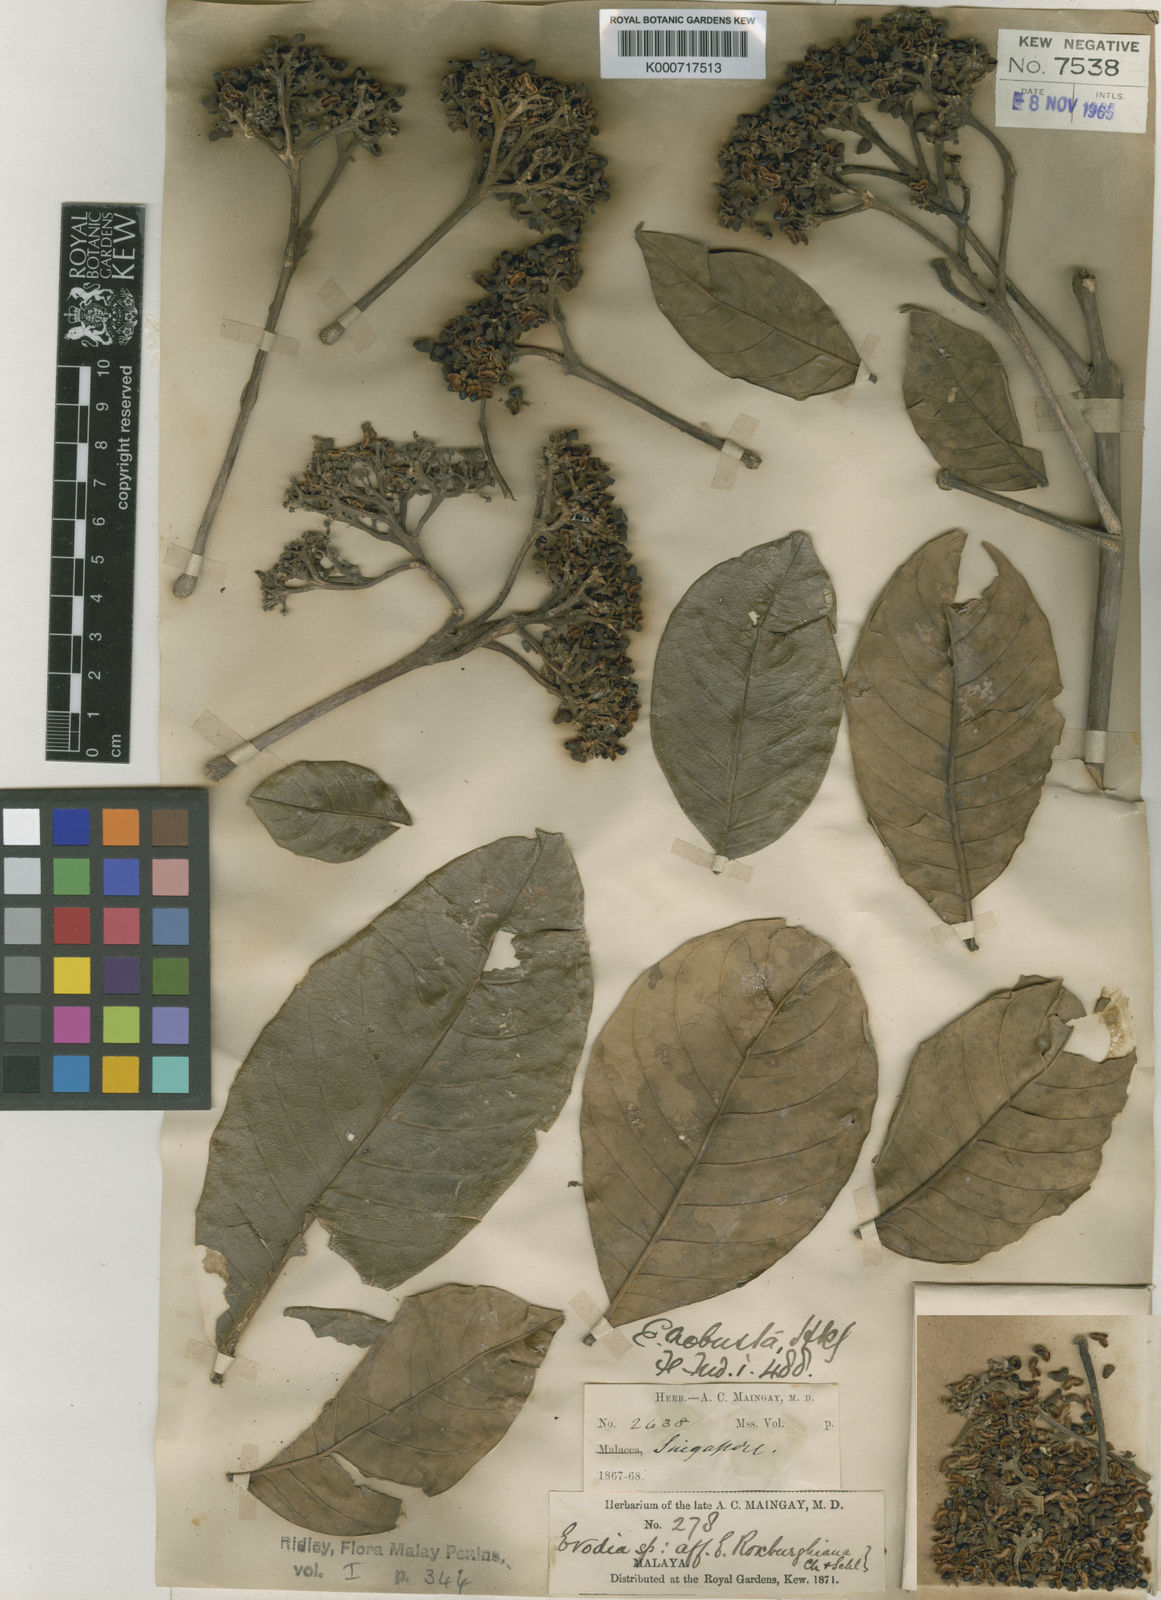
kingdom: Plantae
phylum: Tracheophyta
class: Magnoliopsida
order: Sapindales
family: Rutaceae
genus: Melicope
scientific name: Melicope hookeri
